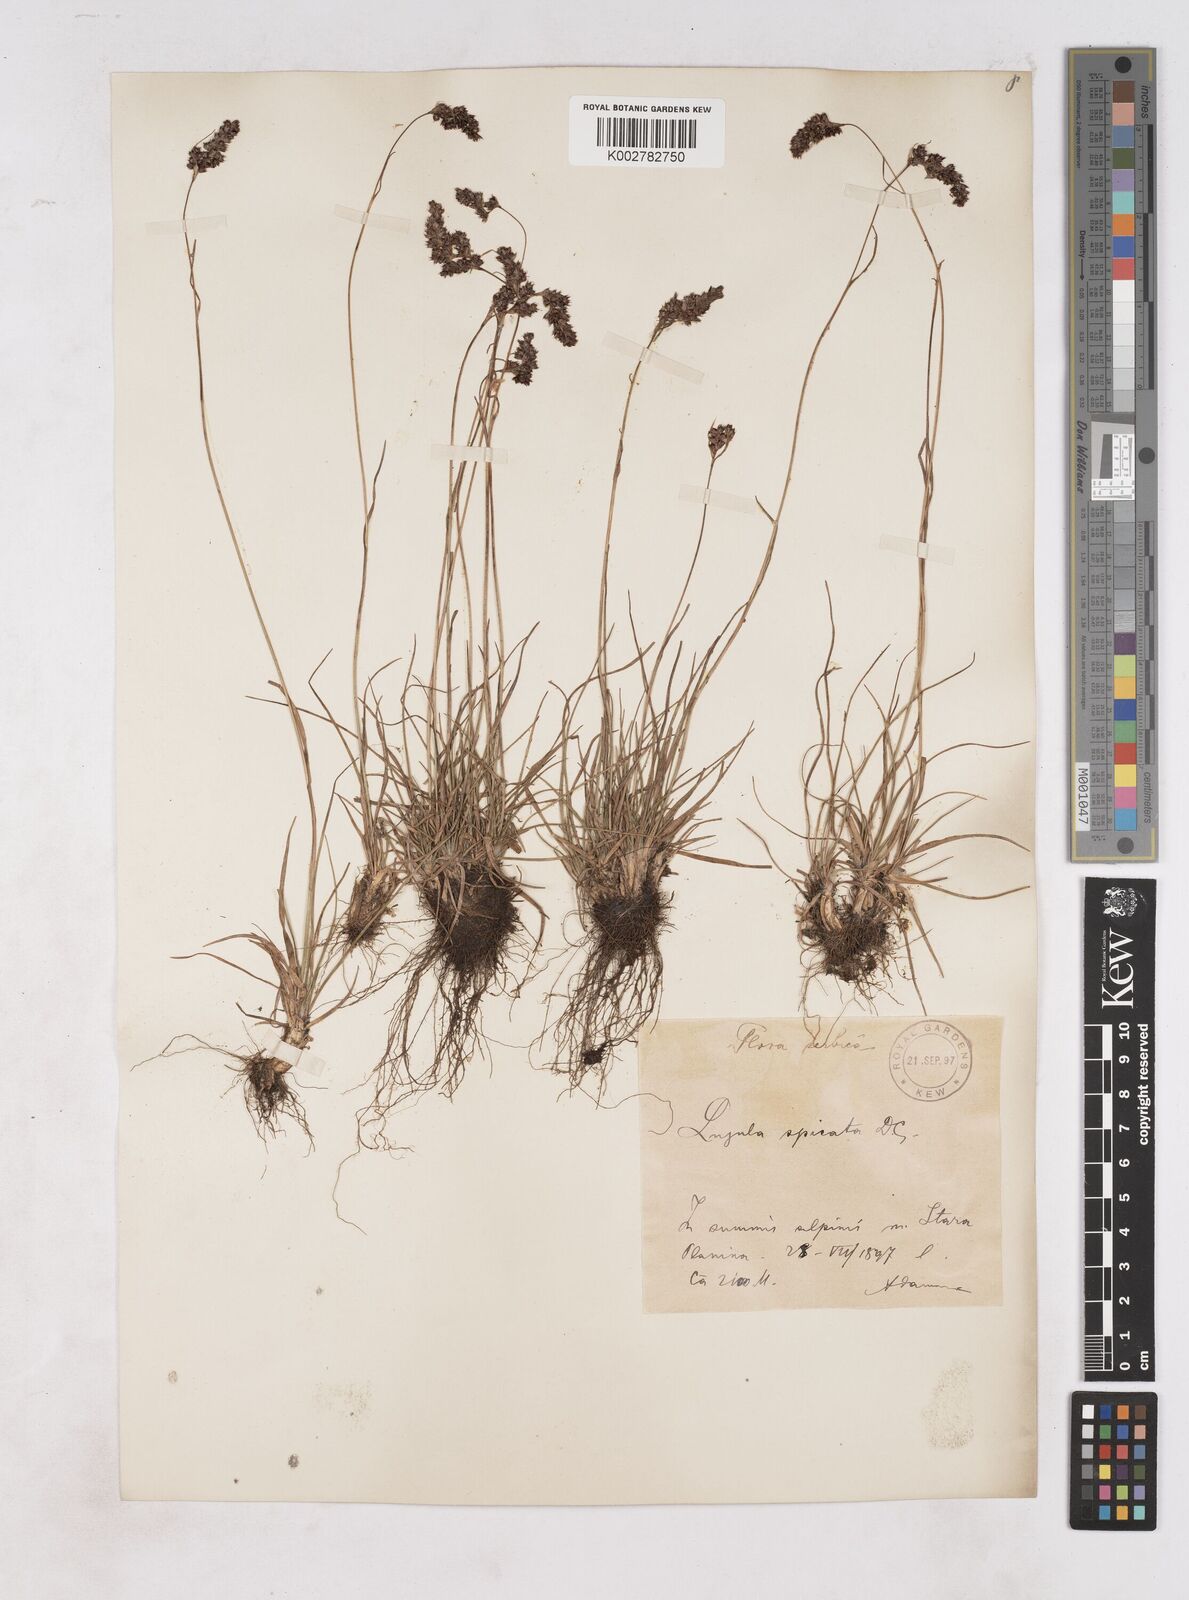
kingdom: Plantae
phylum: Tracheophyta
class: Liliopsida
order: Poales
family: Juncaceae
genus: Luzula
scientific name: Luzula spicata
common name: Spiked wood-rush
